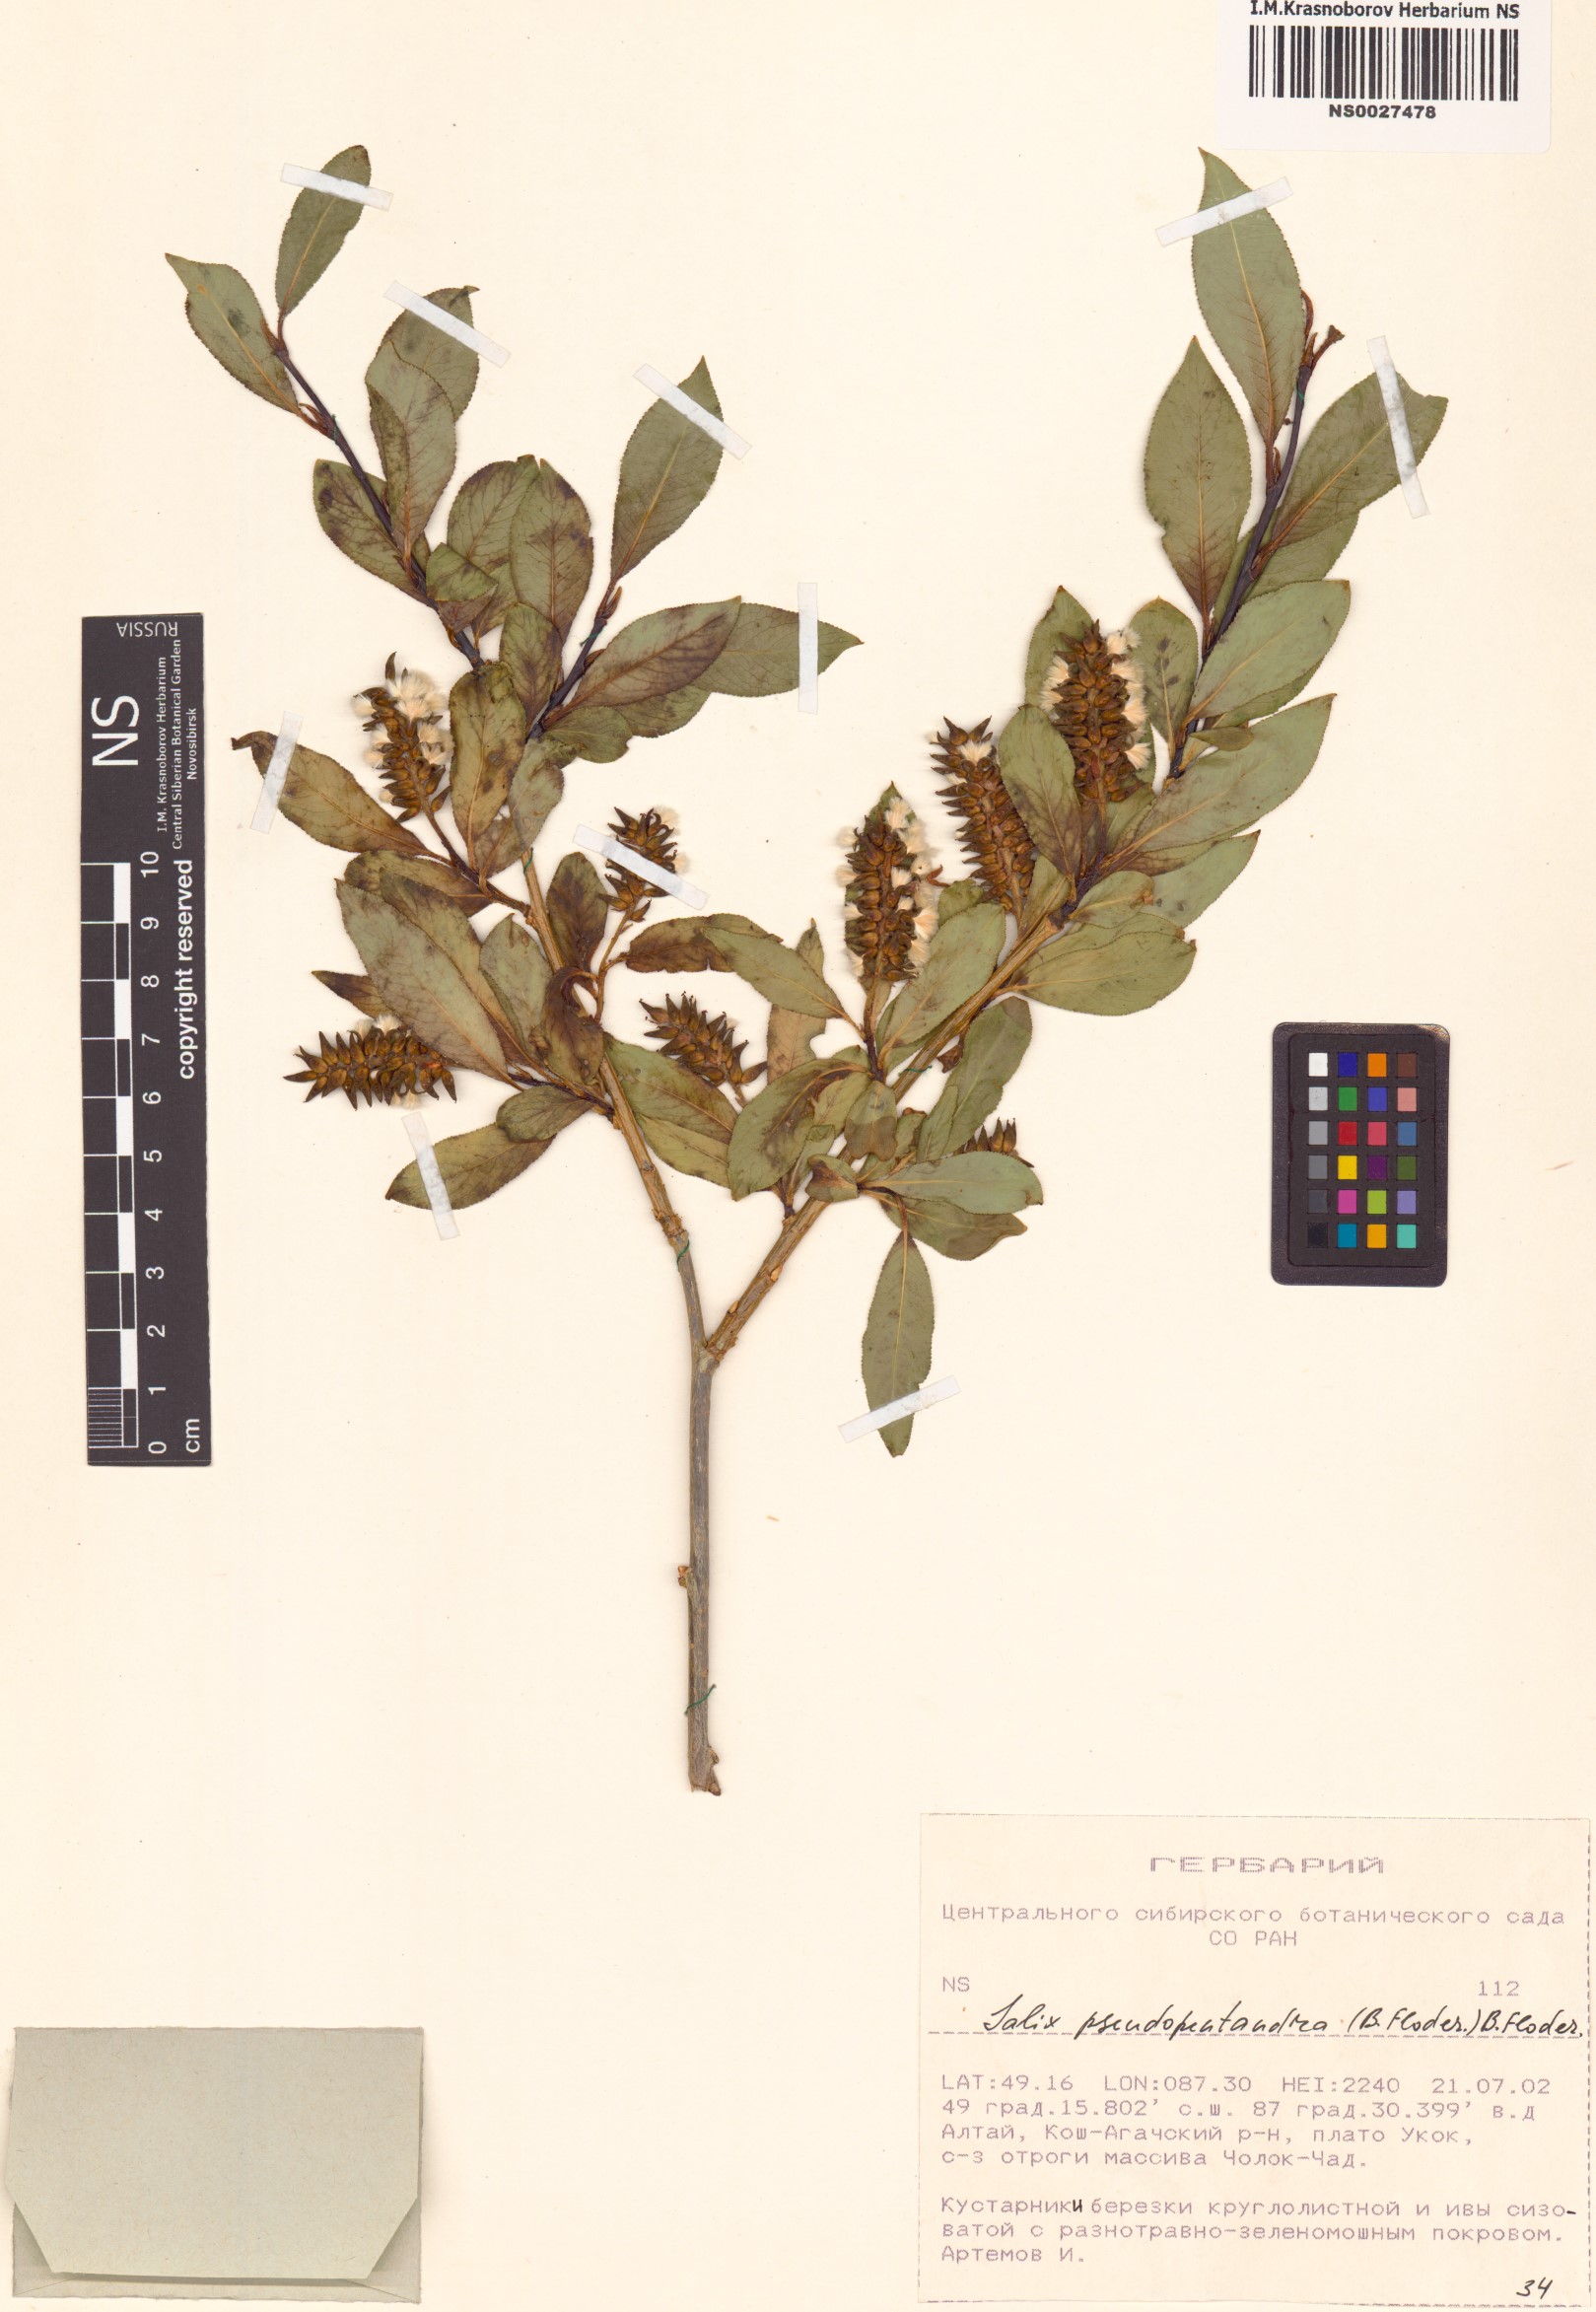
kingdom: Plantae
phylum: Tracheophyta
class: Magnoliopsida
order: Malpighiales
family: Salicaceae
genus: Salix
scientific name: Salix pseudopentandra
